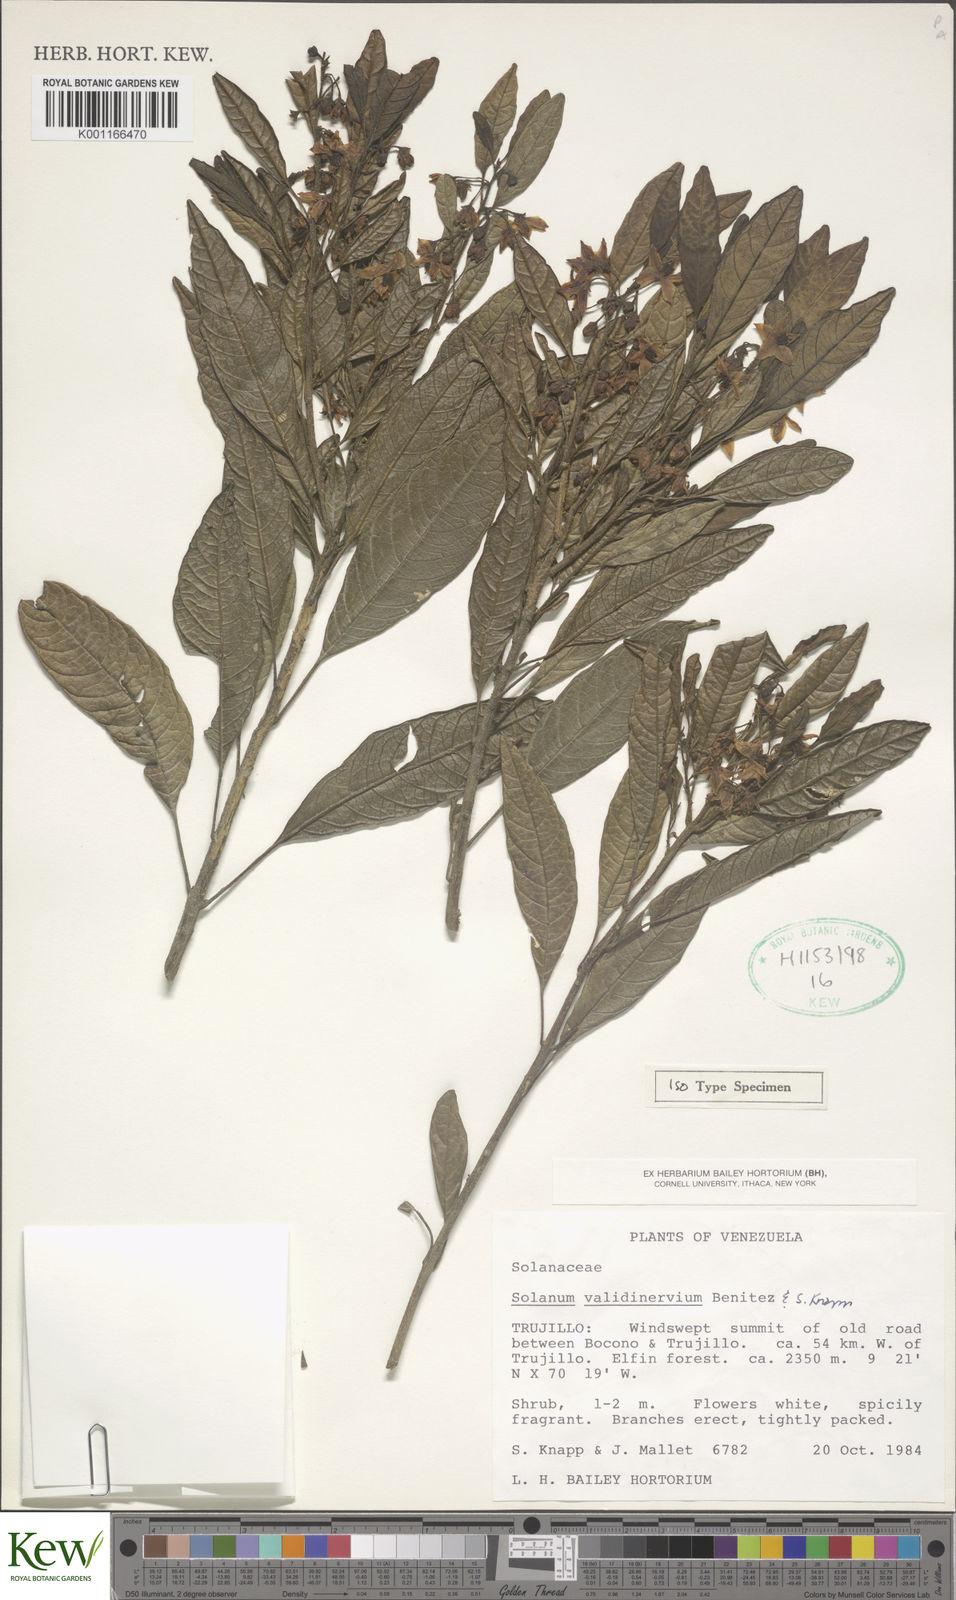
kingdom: Plantae
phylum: Tracheophyta
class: Magnoliopsida
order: Solanales
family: Solanaceae
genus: Solanum
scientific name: Solanum
